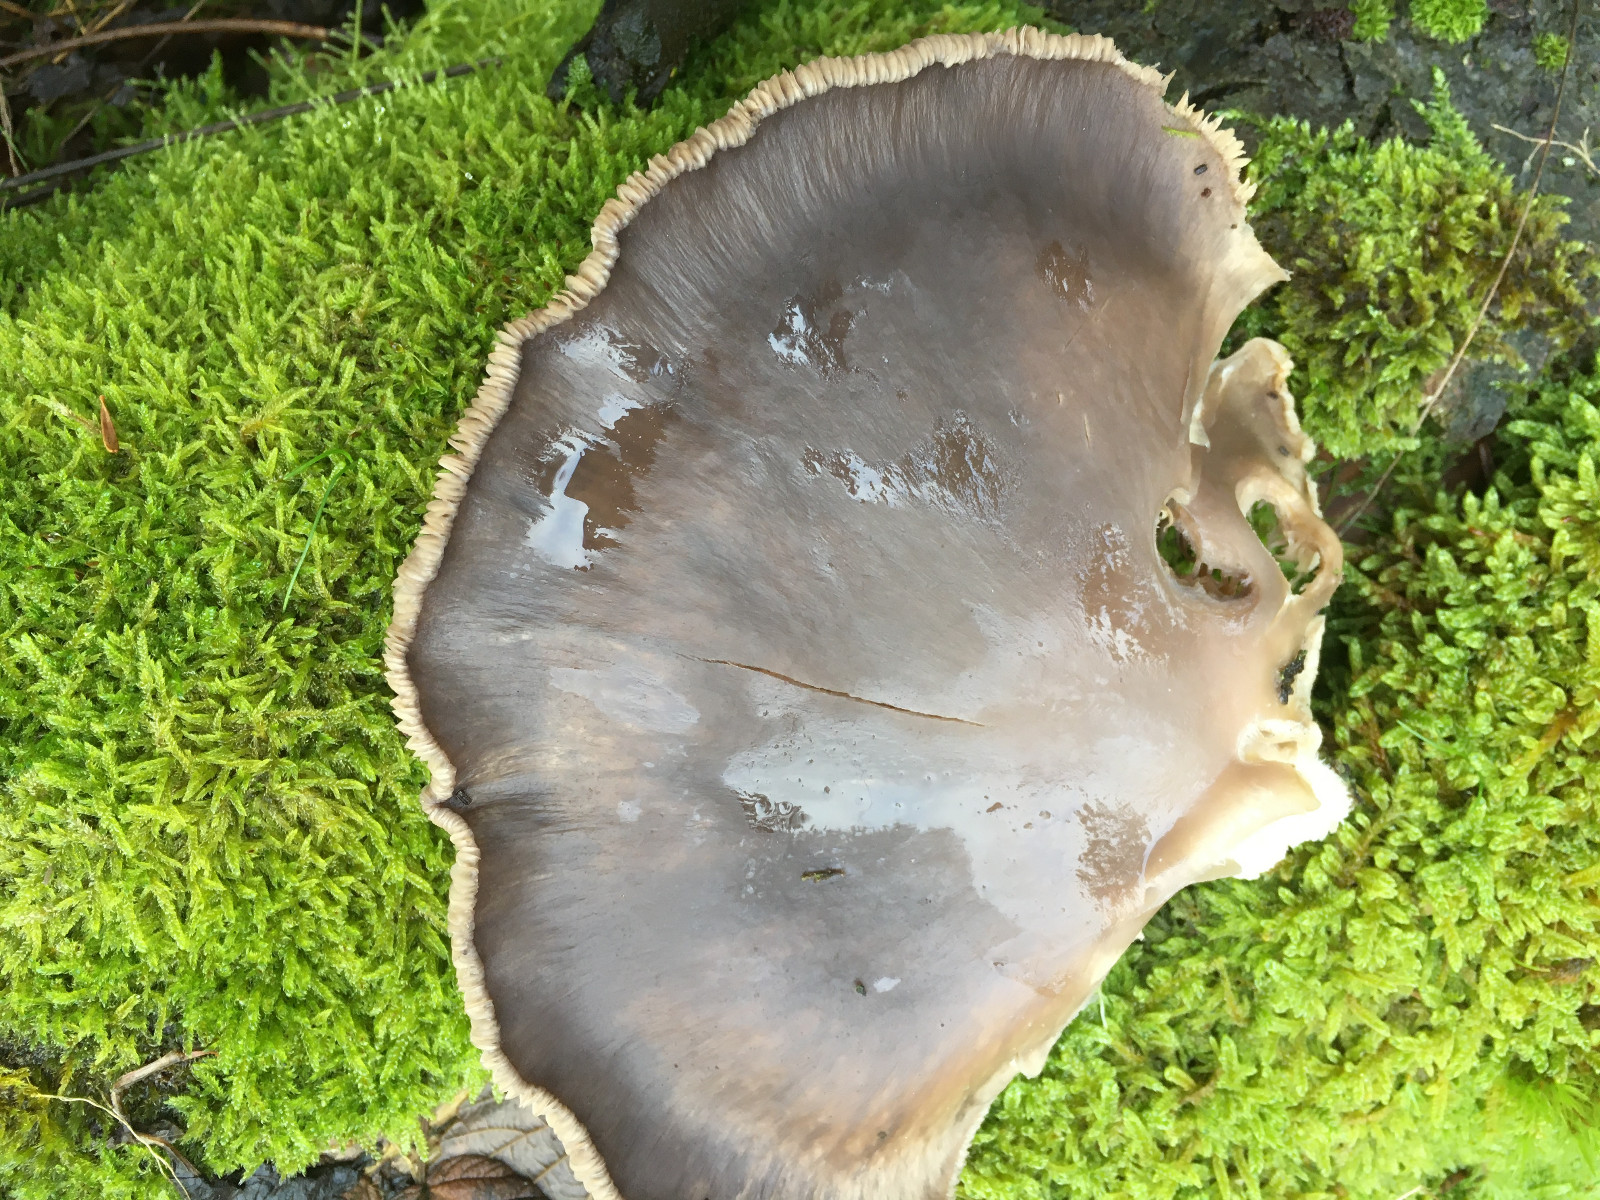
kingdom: Fungi
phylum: Basidiomycota
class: Agaricomycetes
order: Agaricales
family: Pleurotaceae
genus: Pleurotus
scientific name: Pleurotus ostreatus
